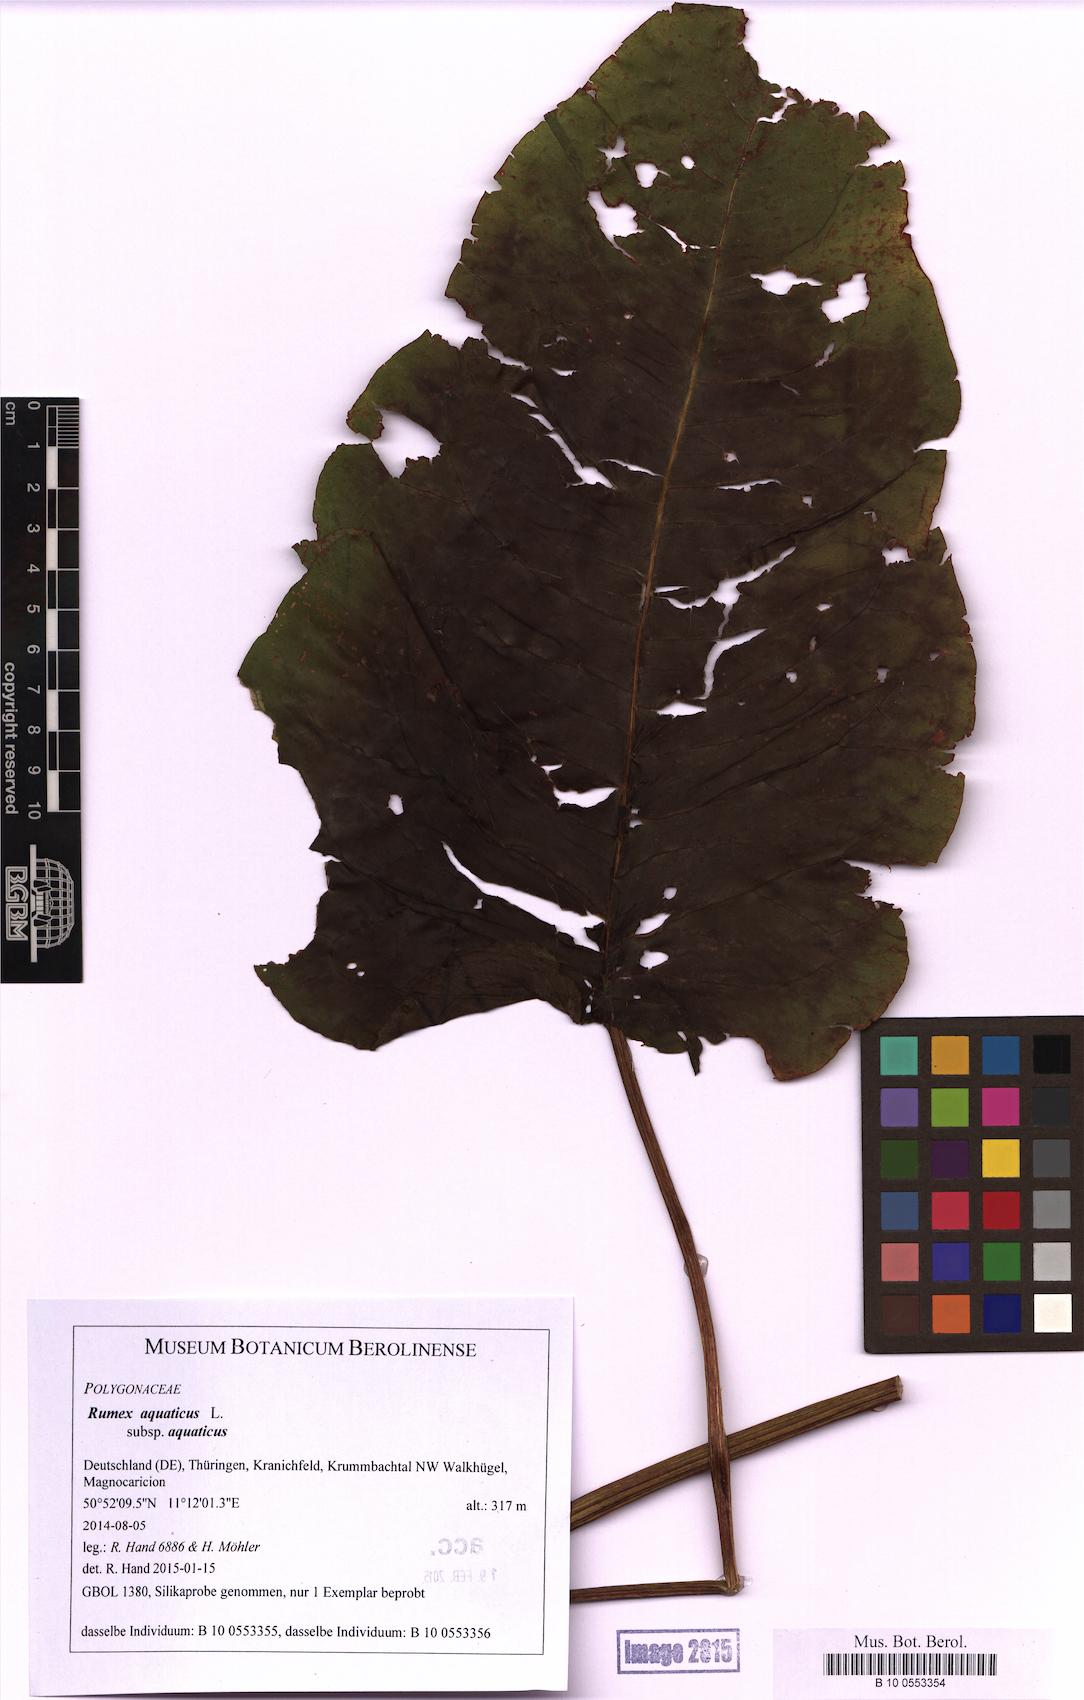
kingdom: Plantae
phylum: Tracheophyta
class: Magnoliopsida
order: Caryophyllales
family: Polygonaceae
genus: Rumex
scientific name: Rumex aquaticus
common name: Scottish dock
